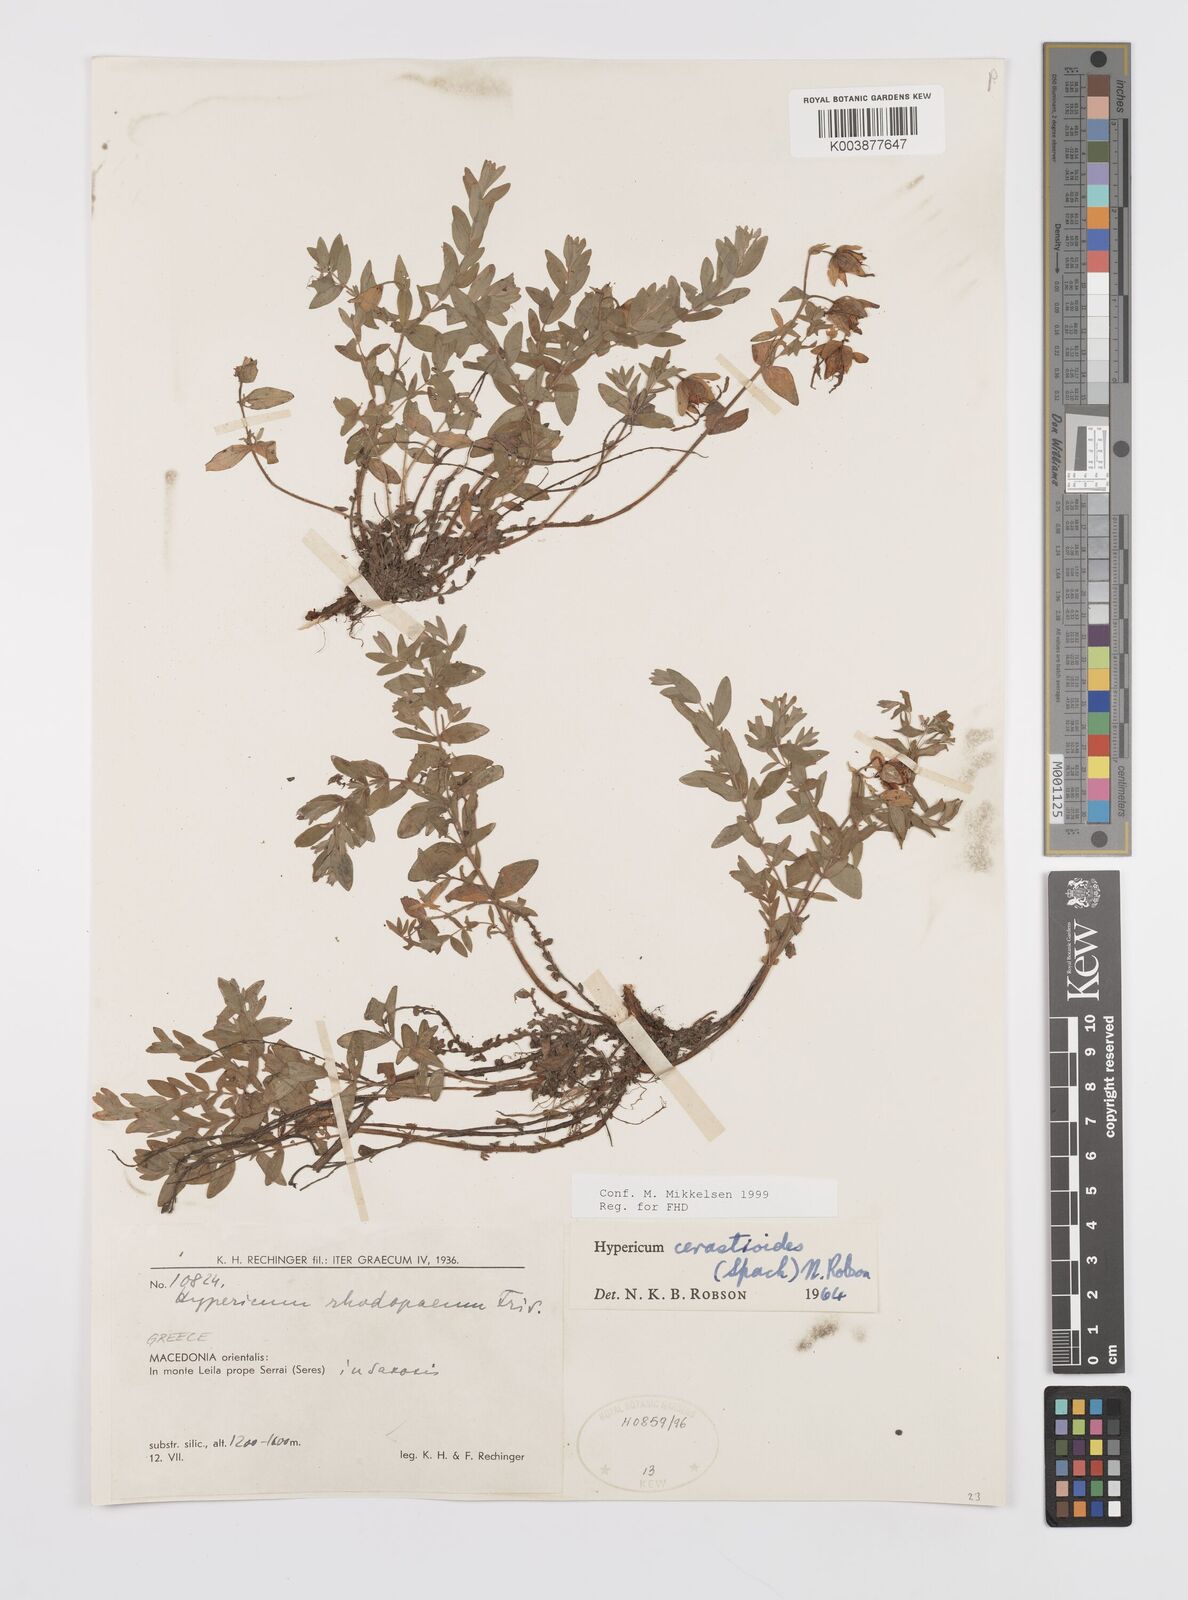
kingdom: Plantae
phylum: Tracheophyta
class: Magnoliopsida
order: Malpighiales
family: Hypericaceae
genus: Hypericum
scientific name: Hypericum cerastoides
